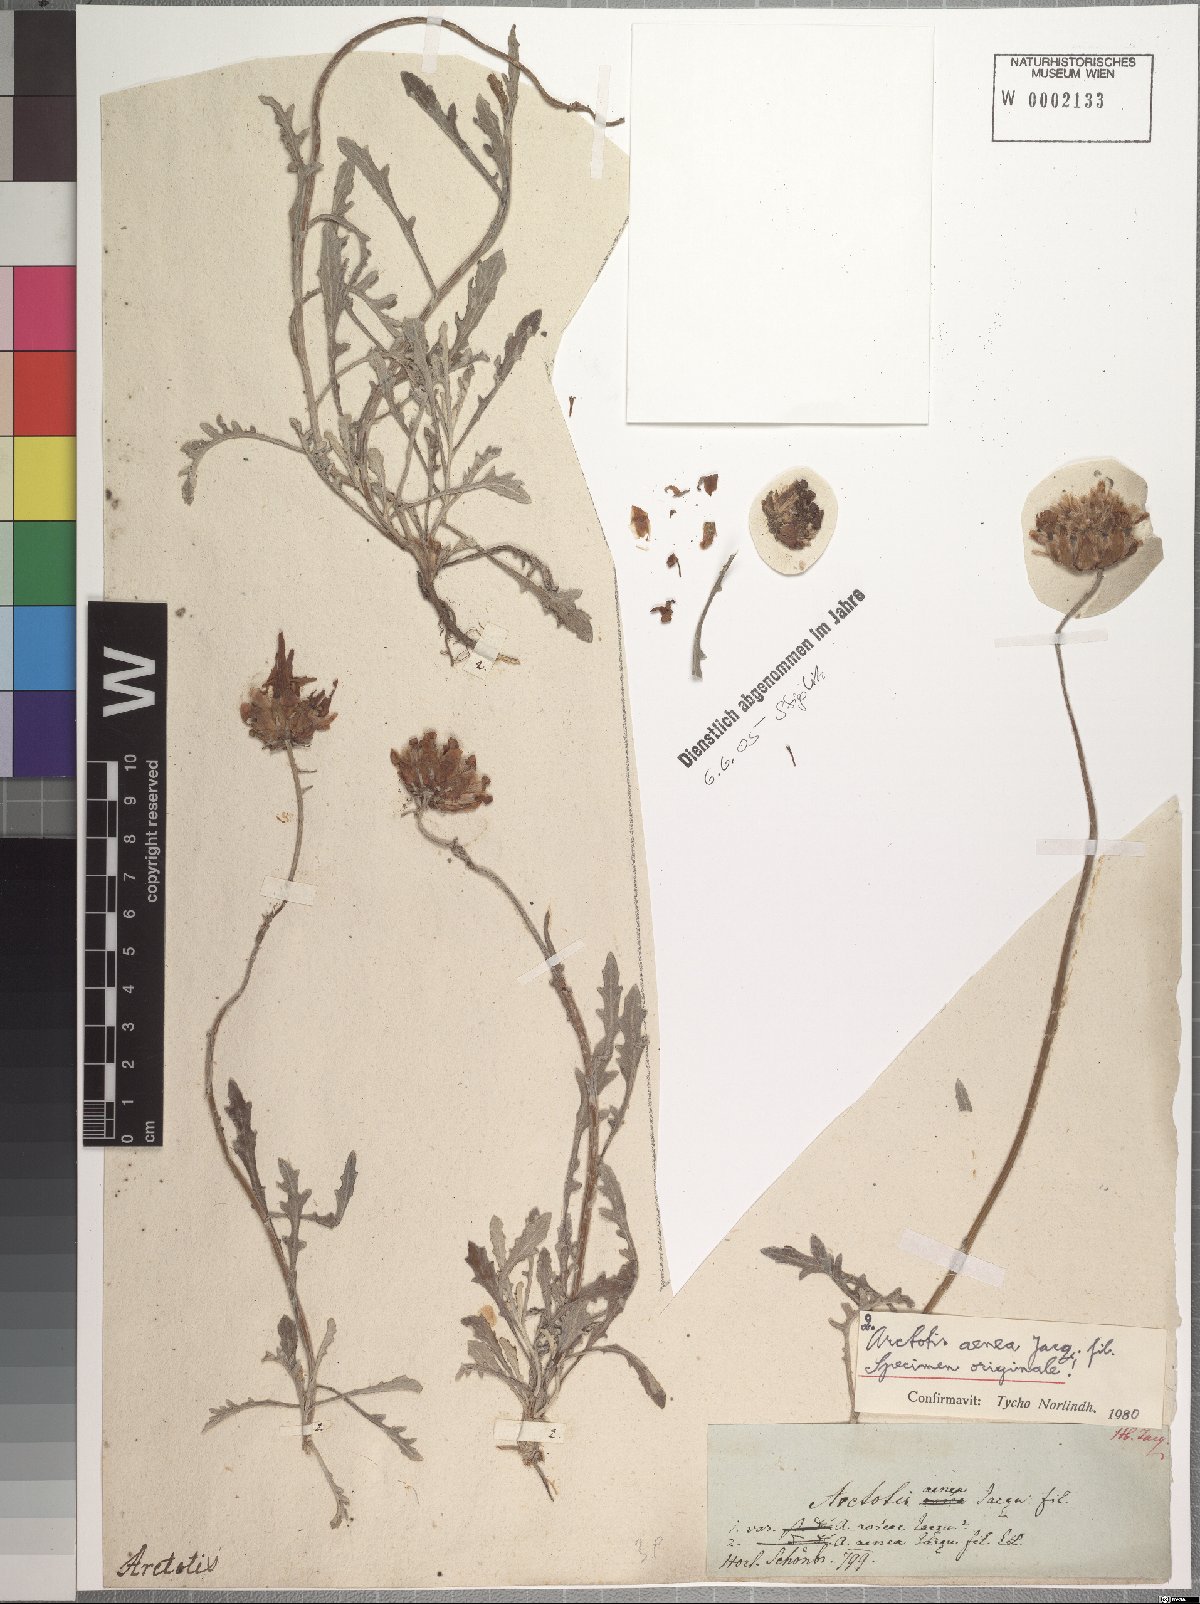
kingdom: Plantae
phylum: Tracheophyta
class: Magnoliopsida
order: Asterales
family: Asteraceae
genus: Arctotis
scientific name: Arctotis revoluta
